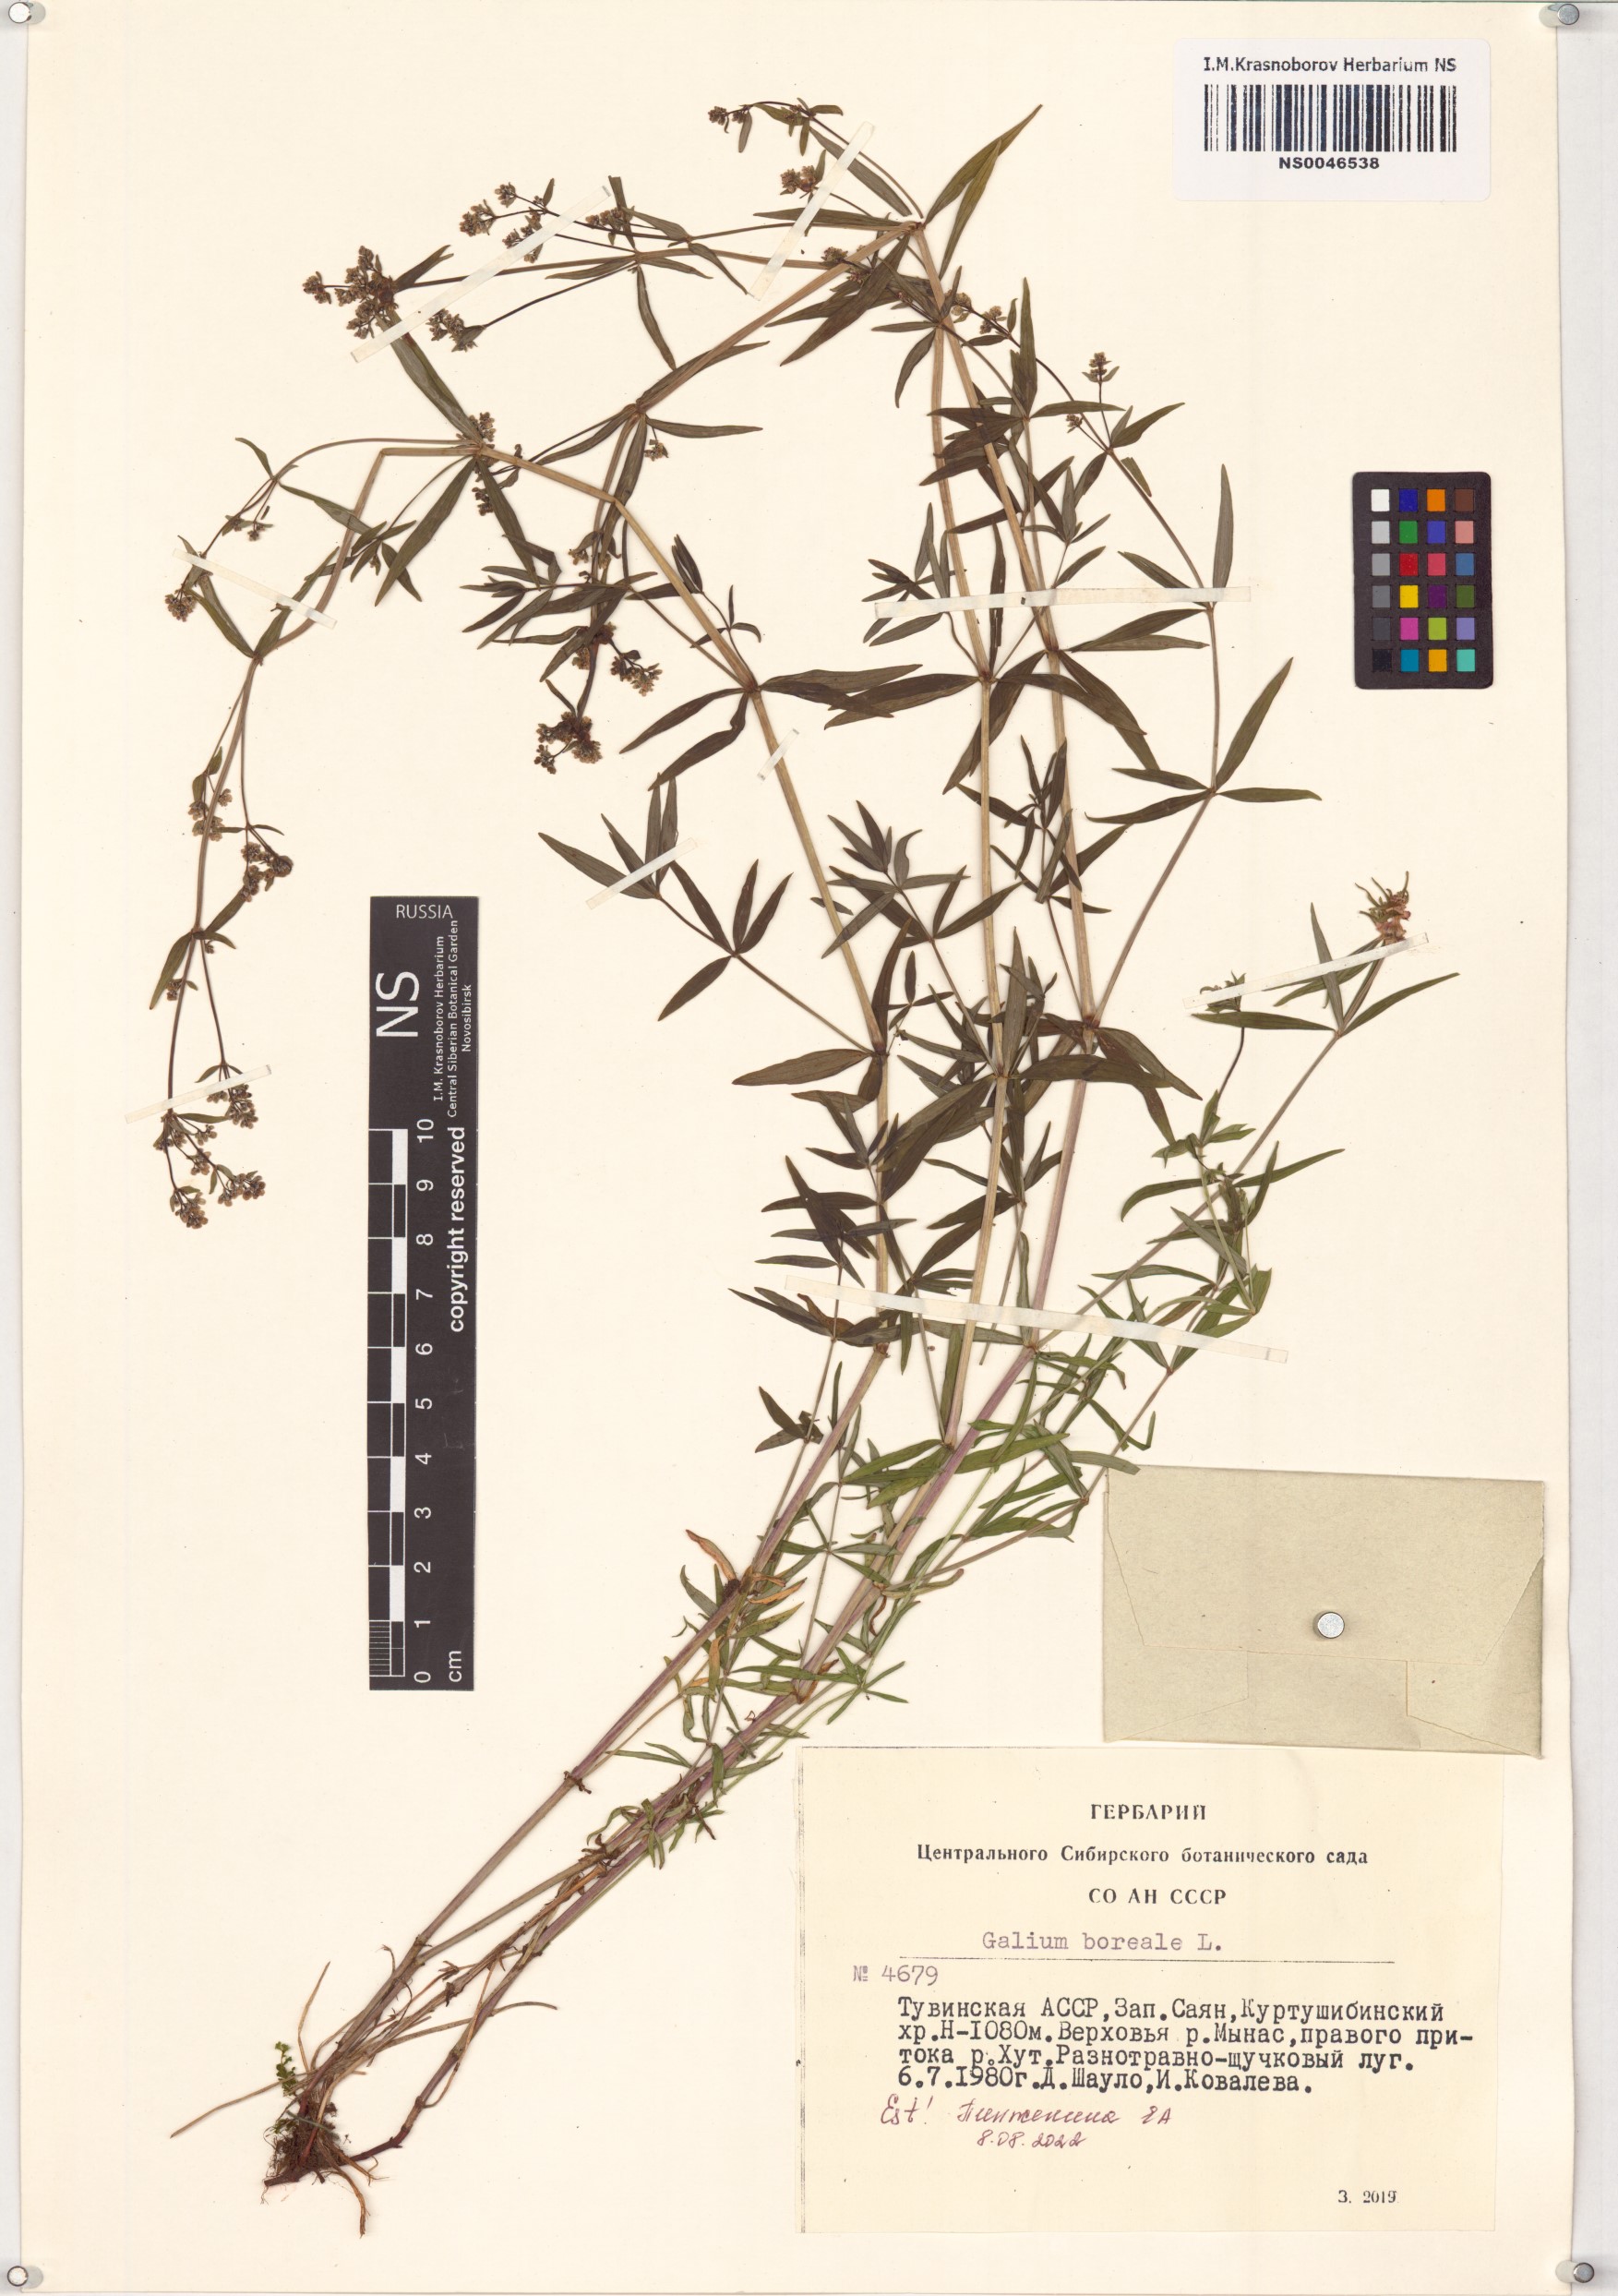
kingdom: Plantae
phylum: Tracheophyta
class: Magnoliopsida
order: Gentianales
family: Rubiaceae
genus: Galium
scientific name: Galium boreale
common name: Northern bedstraw
